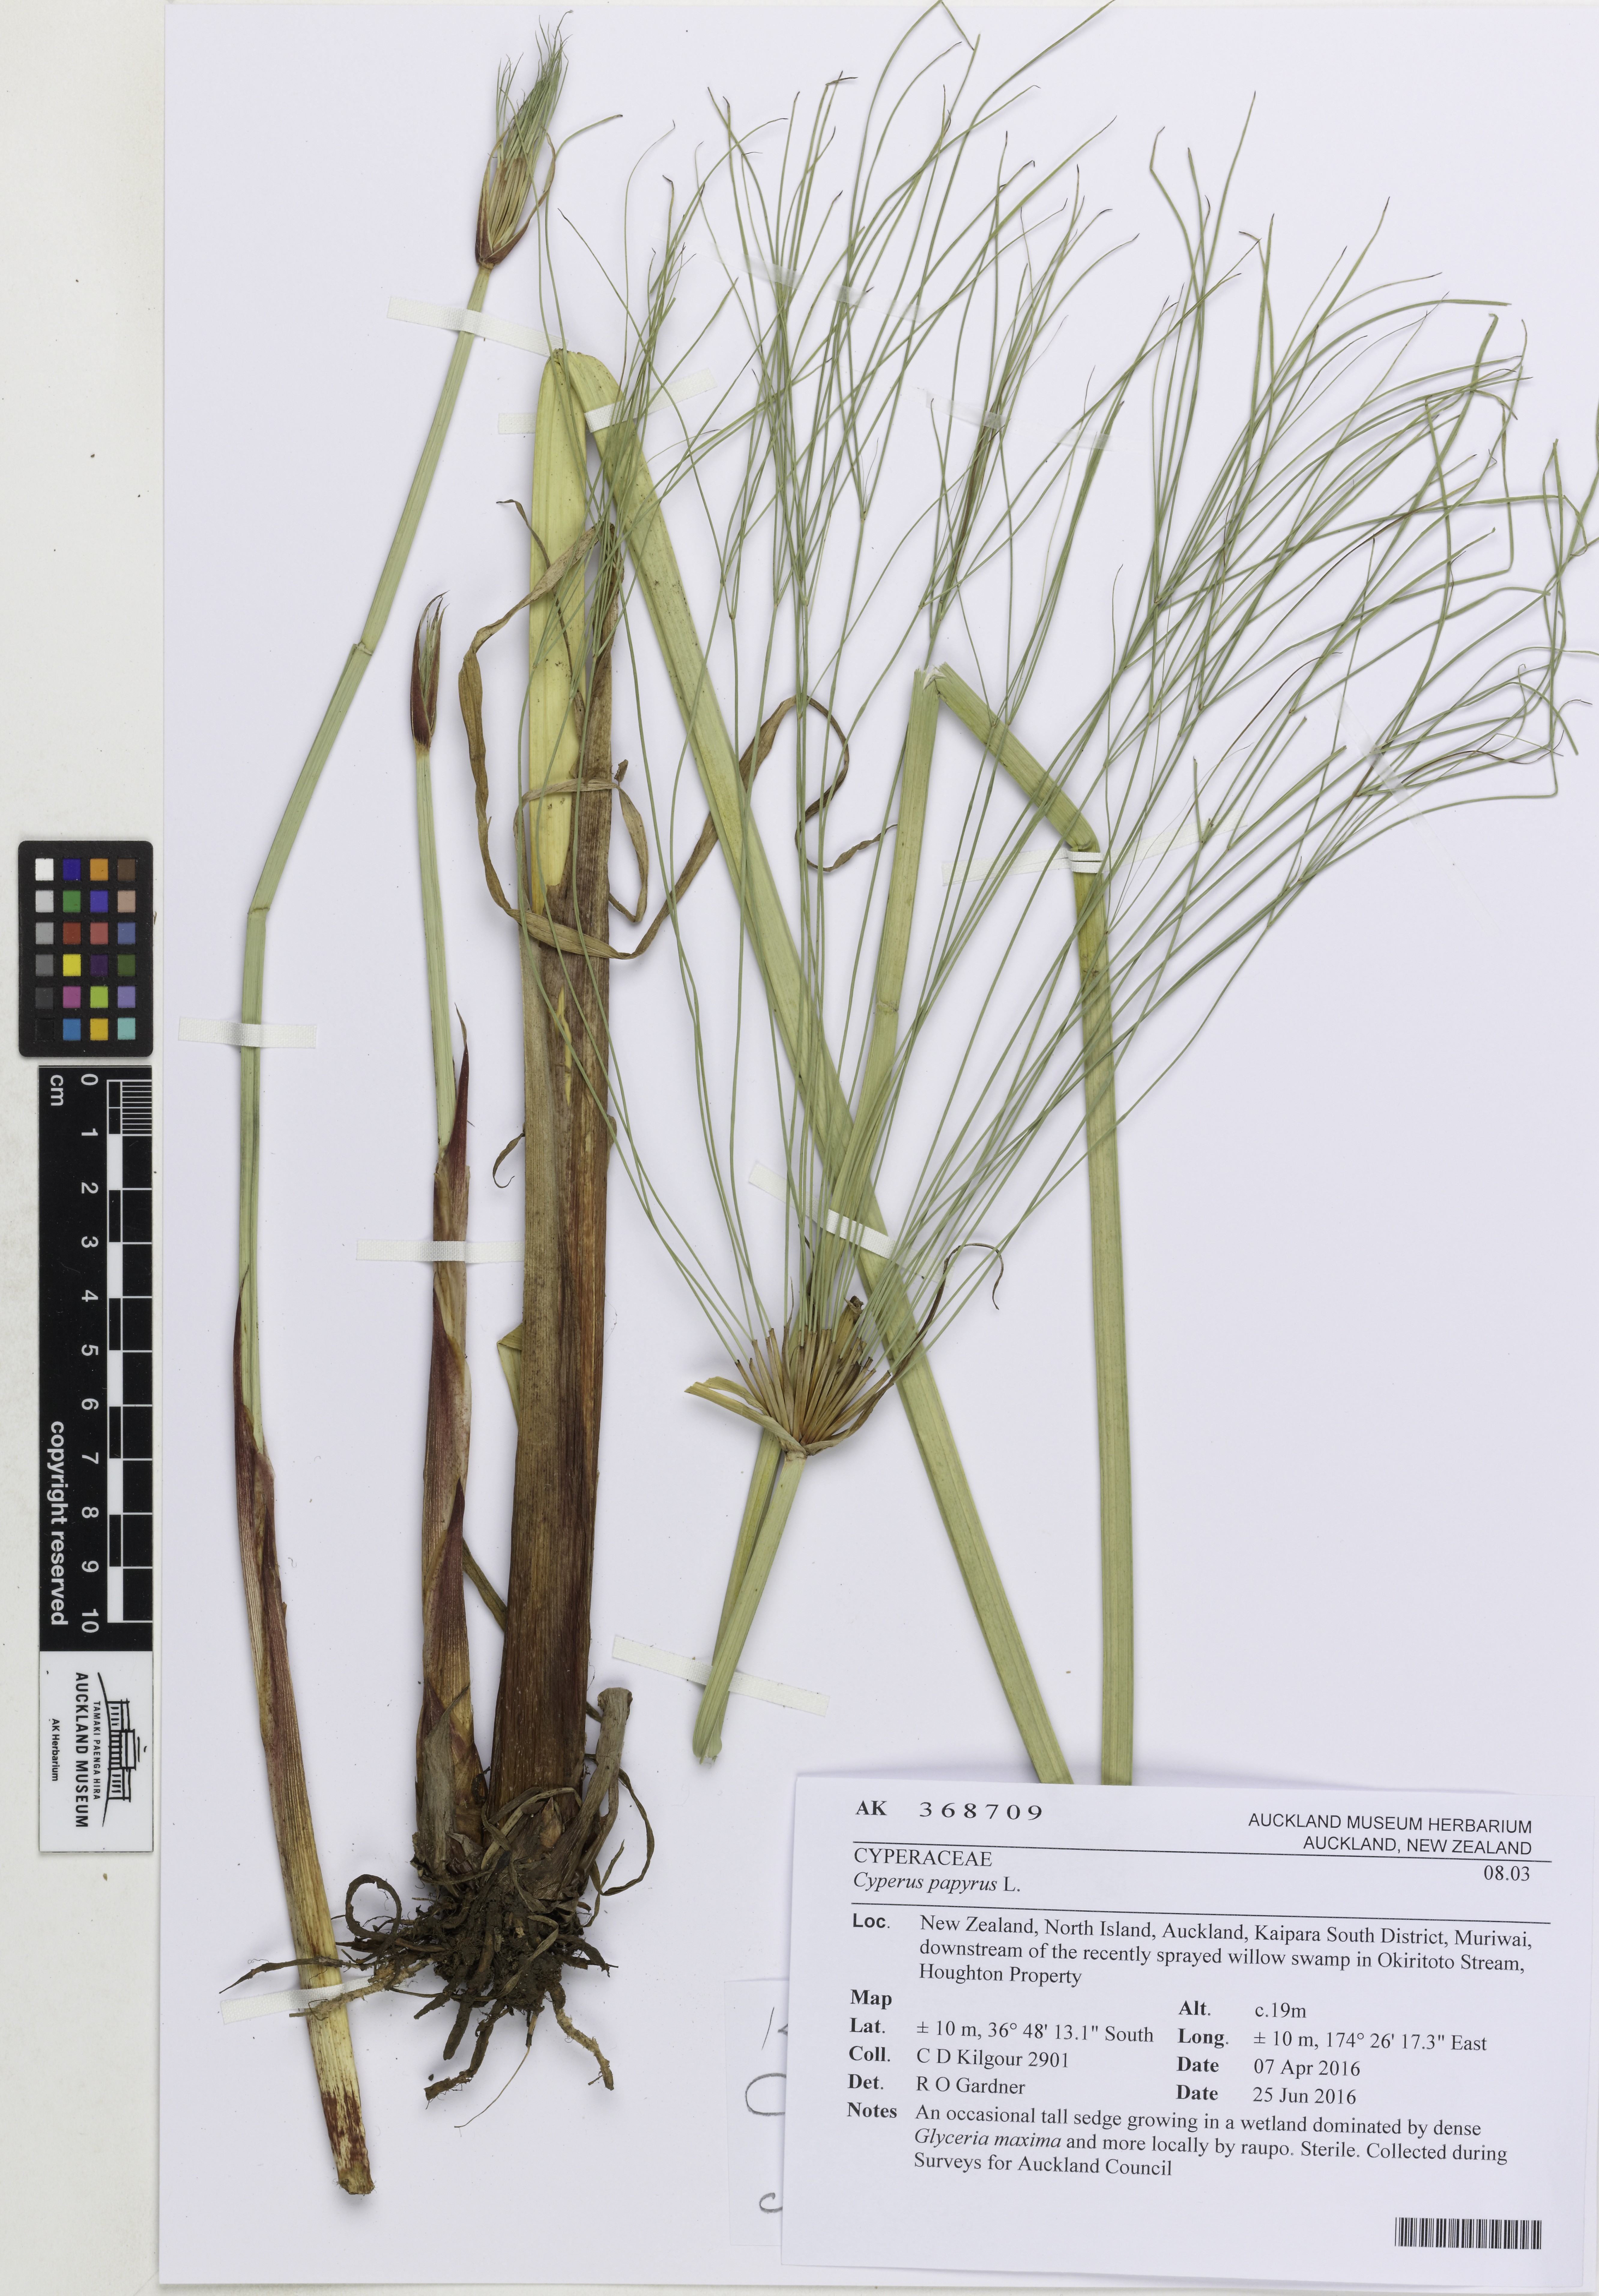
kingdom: Plantae
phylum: Tracheophyta
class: Liliopsida
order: Poales
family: Cyperaceae
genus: Cyperus
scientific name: Cyperus papyrus
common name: Papyrus
